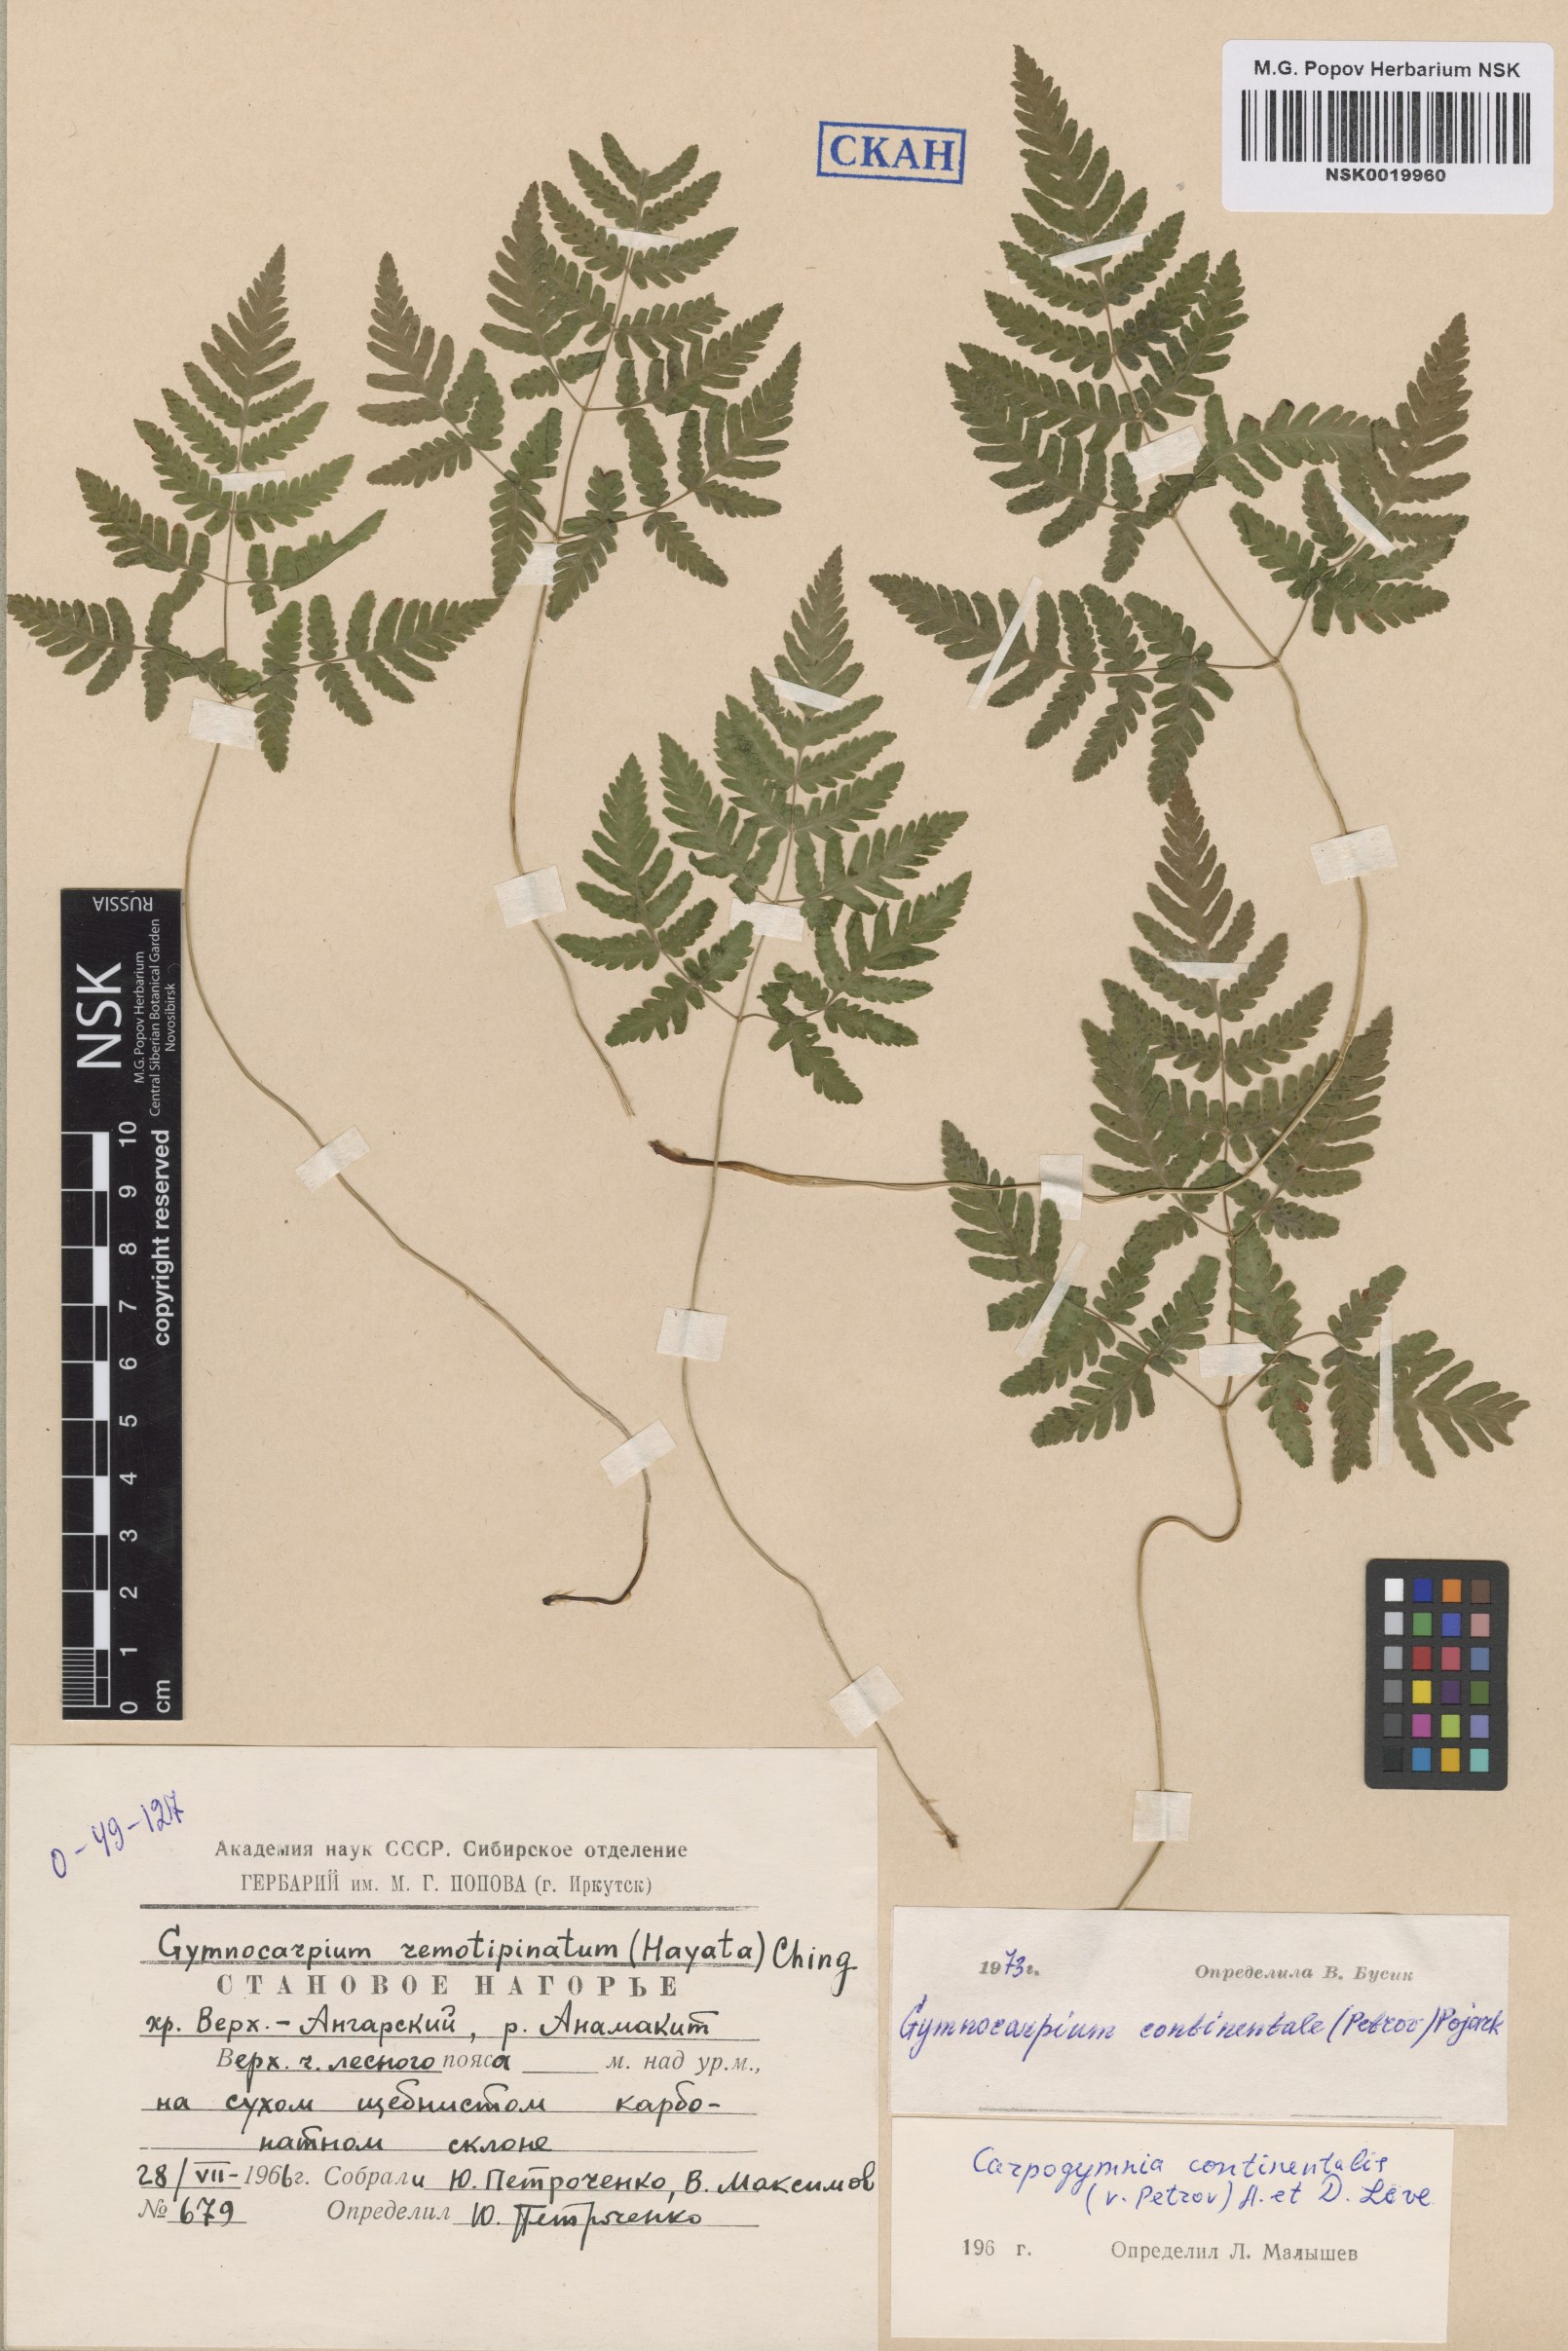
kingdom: Plantae
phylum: Tracheophyta
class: Polypodiopsida
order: Polypodiales
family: Cystopteridaceae
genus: Gymnocarpium
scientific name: Gymnocarpium continentale
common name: Asian oak fern
